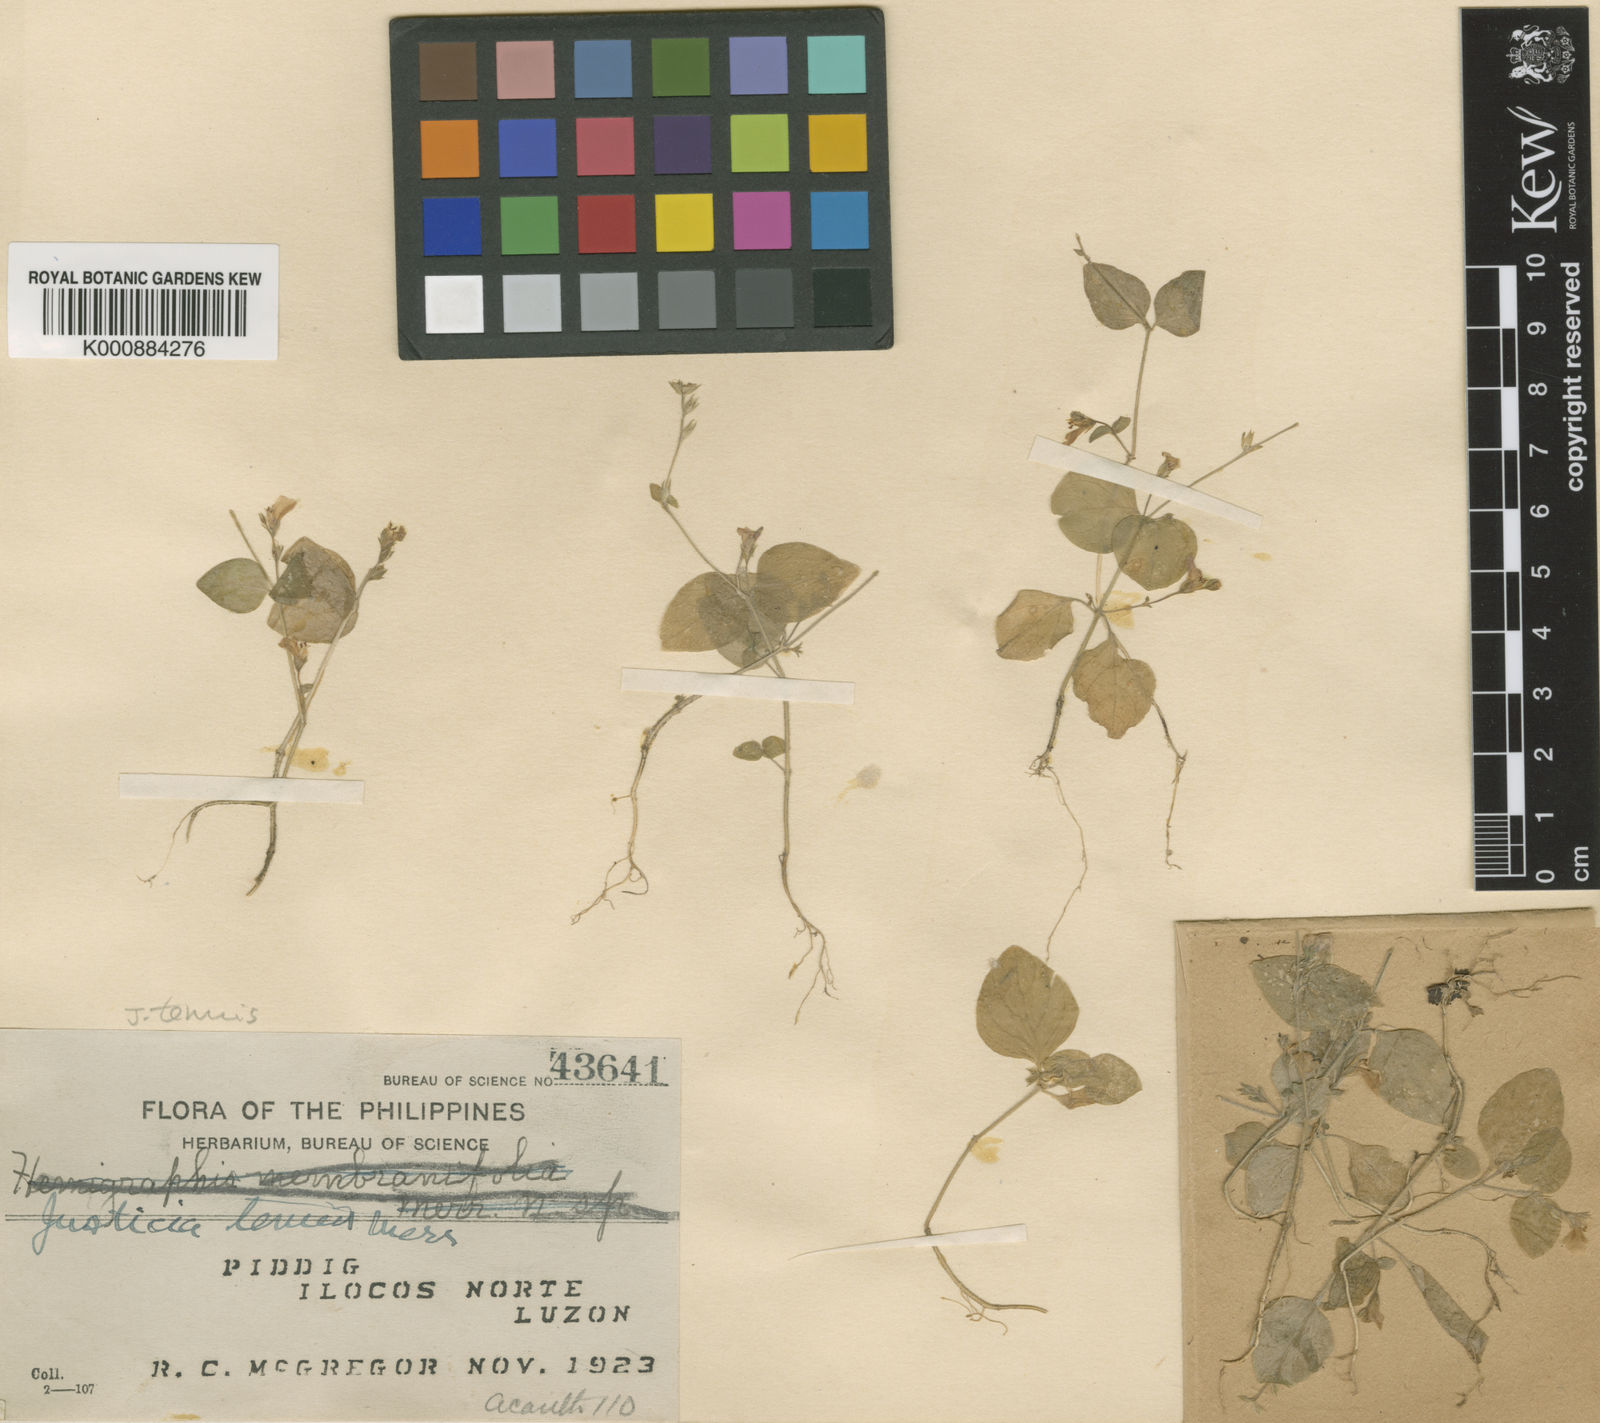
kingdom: Plantae
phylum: Tracheophyta
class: Magnoliopsida
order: Lamiales
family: Acanthaceae
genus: Justicia
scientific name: Justicia tenuis
